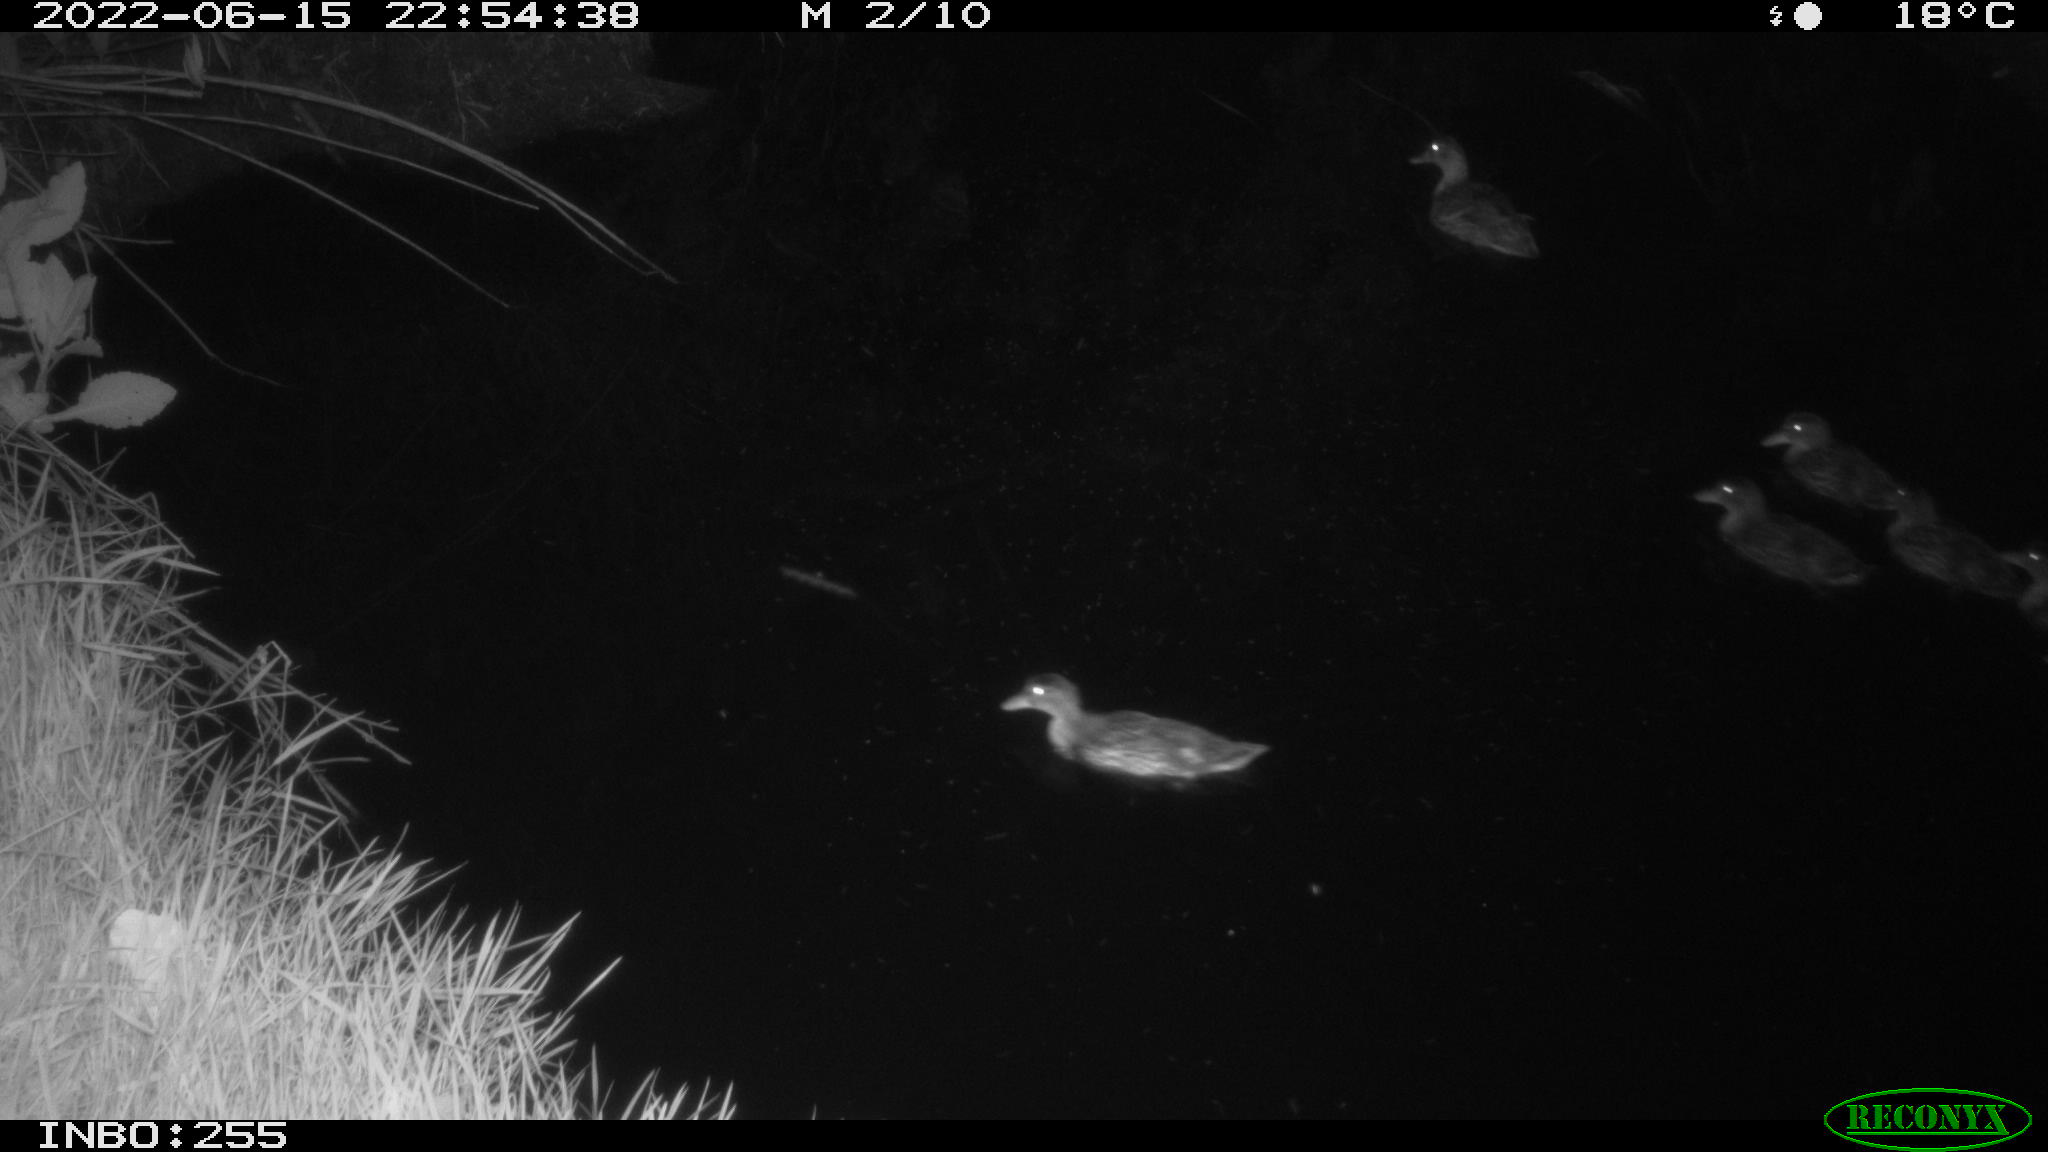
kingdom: Animalia
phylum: Chordata
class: Aves
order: Anseriformes
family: Anatidae
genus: Mareca
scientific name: Mareca strepera
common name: Gadwall
